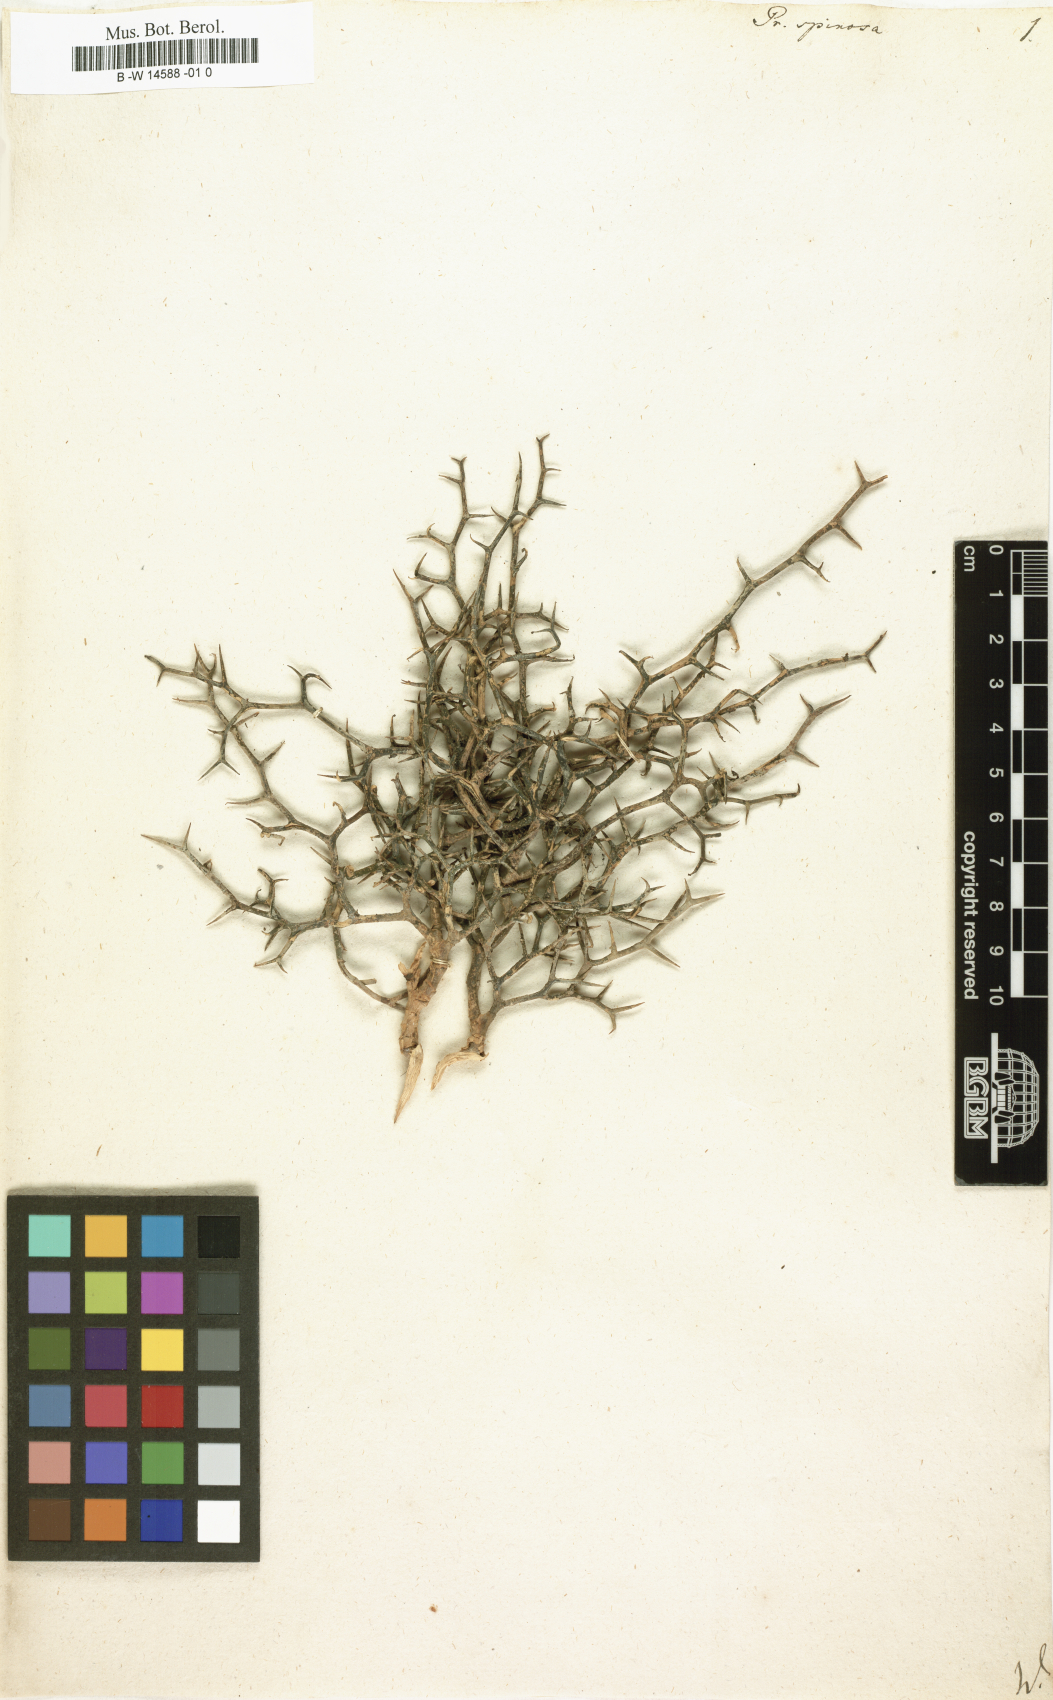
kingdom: Plantae
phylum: Tracheophyta
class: Magnoliopsida
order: Asterales
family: Asteraceae
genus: Prenanthes
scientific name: Prenanthes spinosa
